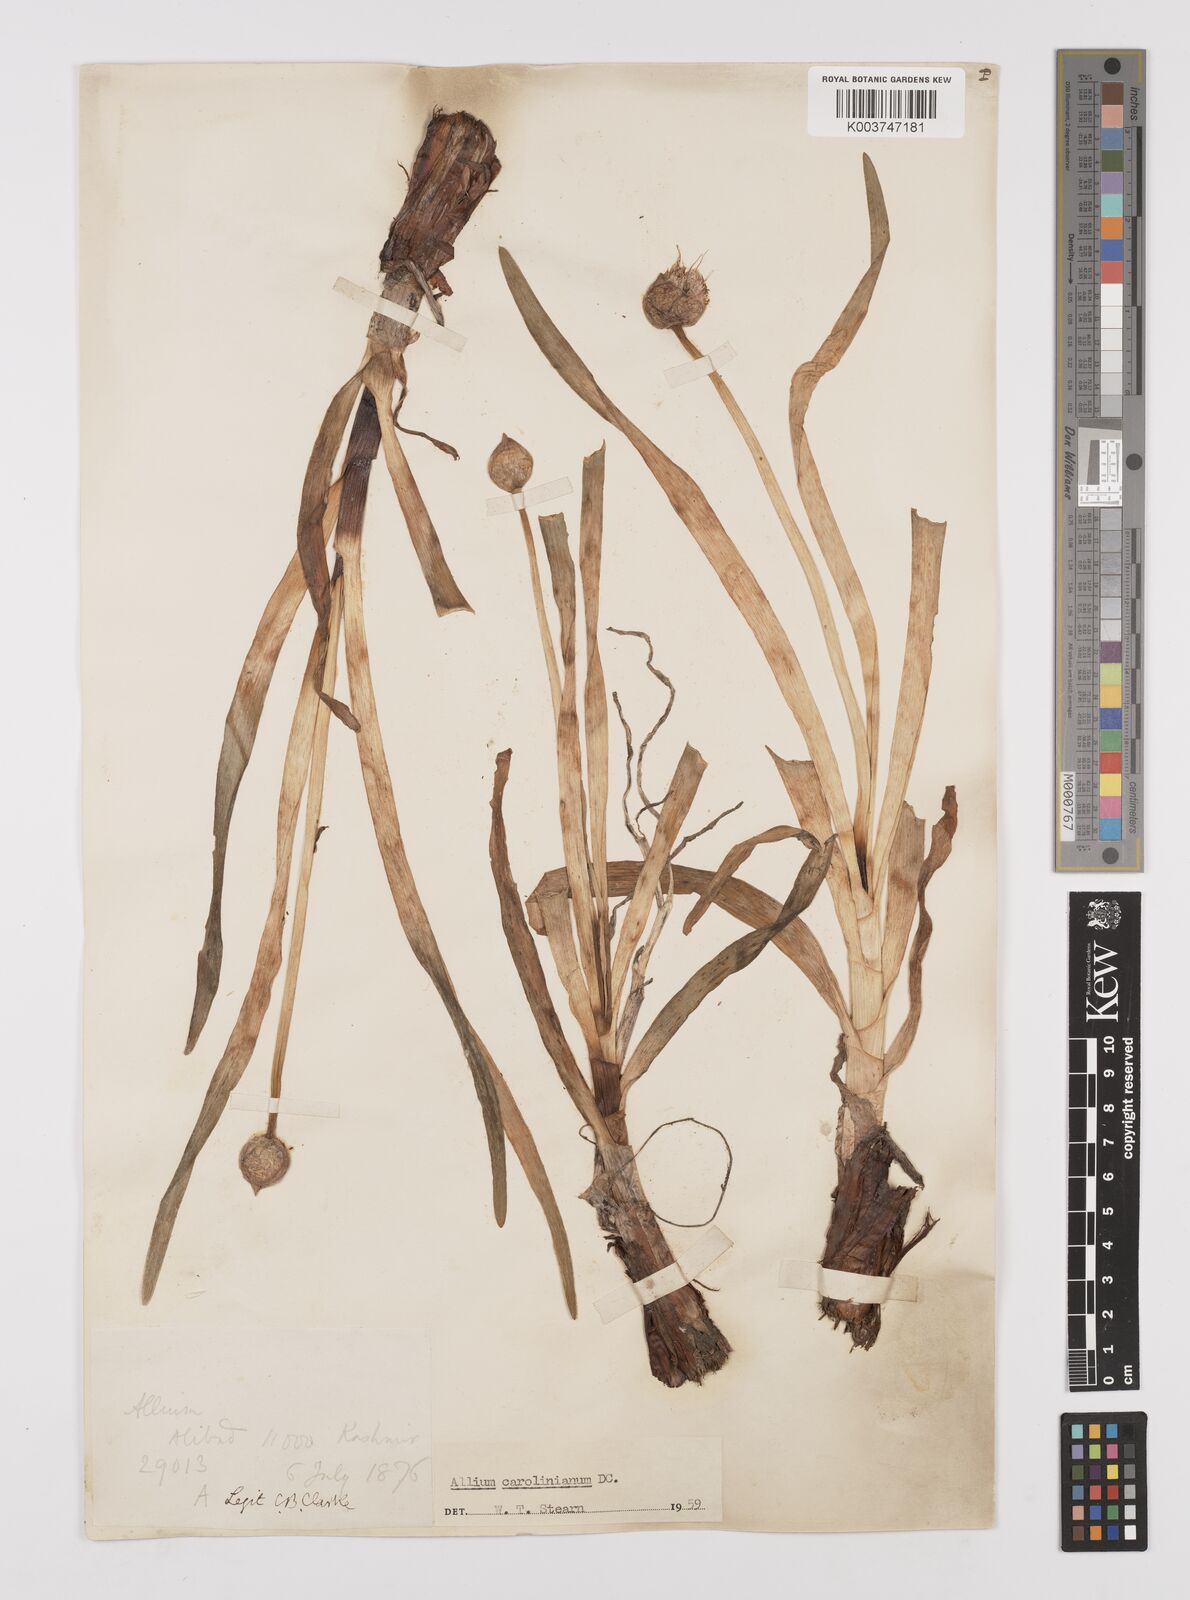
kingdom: Plantae
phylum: Tracheophyta
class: Liliopsida
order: Asparagales
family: Amaryllidaceae
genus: Allium
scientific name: Allium carolinianum
